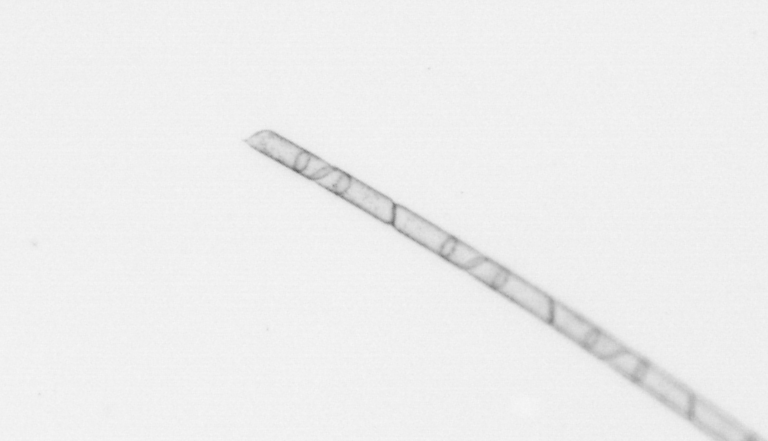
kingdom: Chromista
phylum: Ochrophyta
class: Bacillariophyceae
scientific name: Bacillariophyceae
